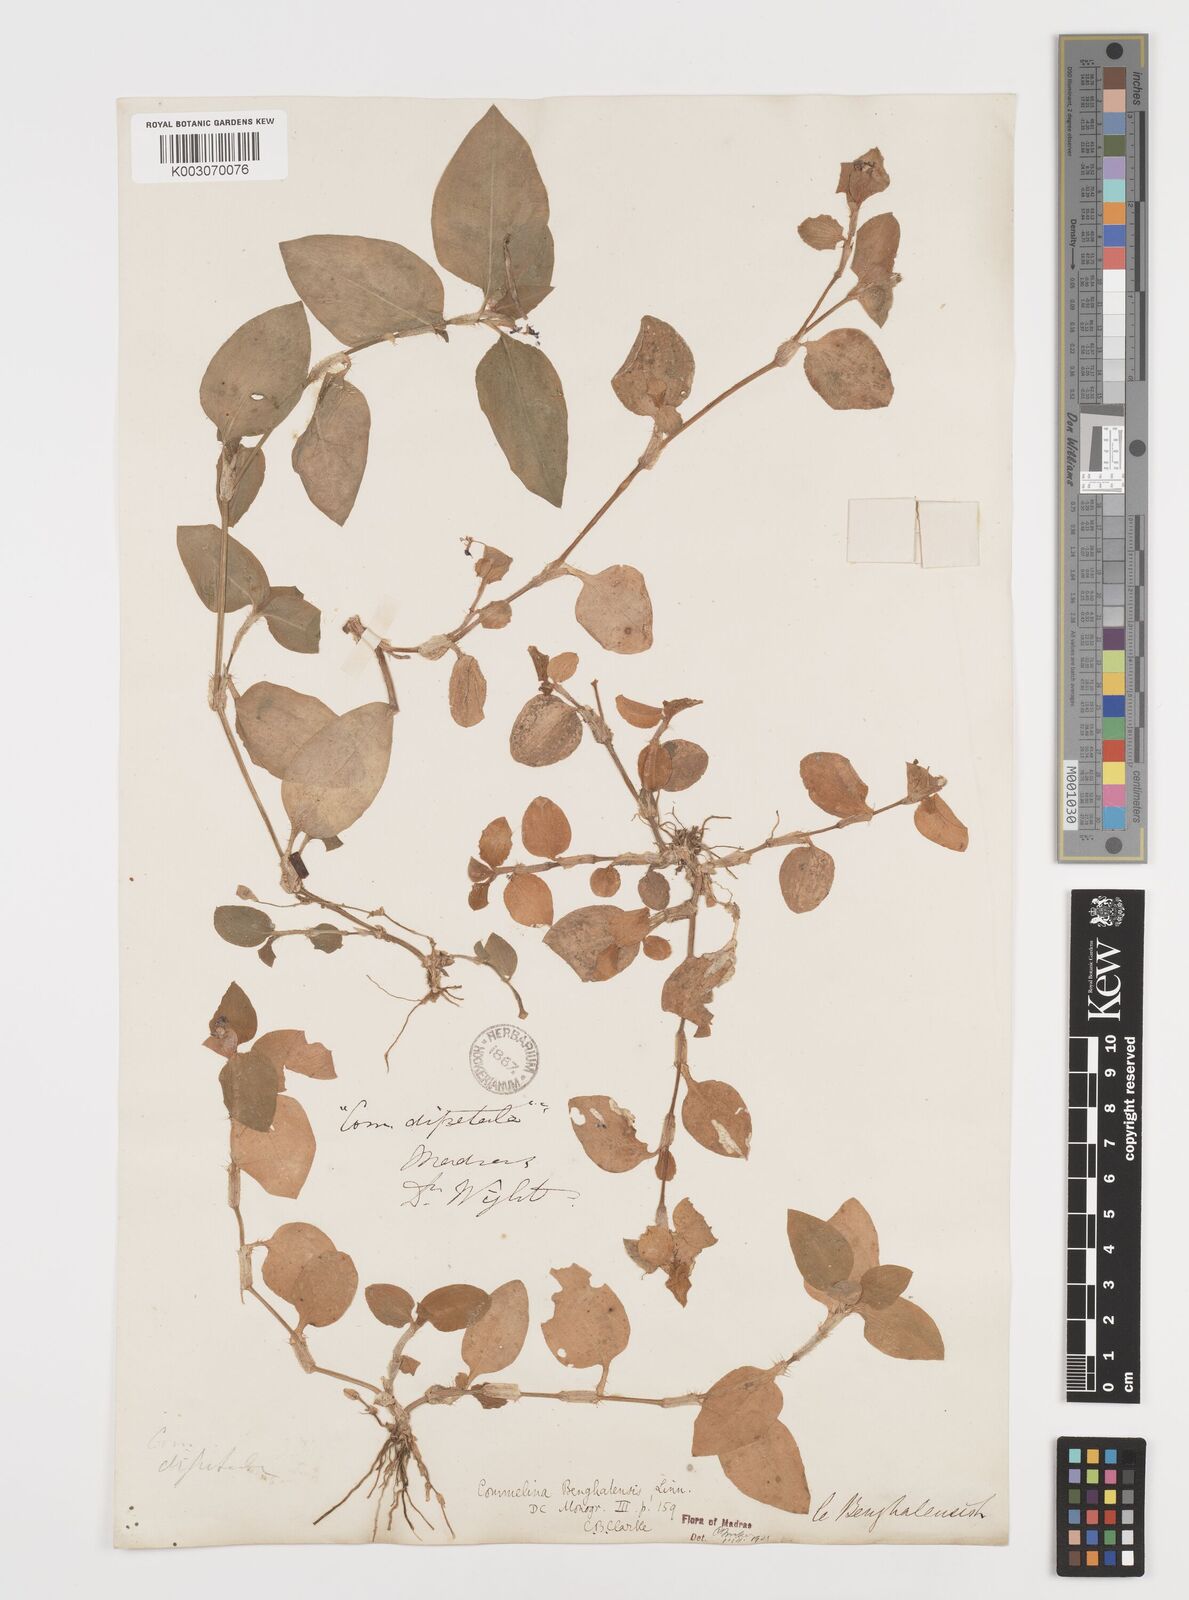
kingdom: Plantae
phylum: Tracheophyta
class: Liliopsida
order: Commelinales
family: Commelinaceae
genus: Commelina
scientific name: Commelina benghalensis
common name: Jio
